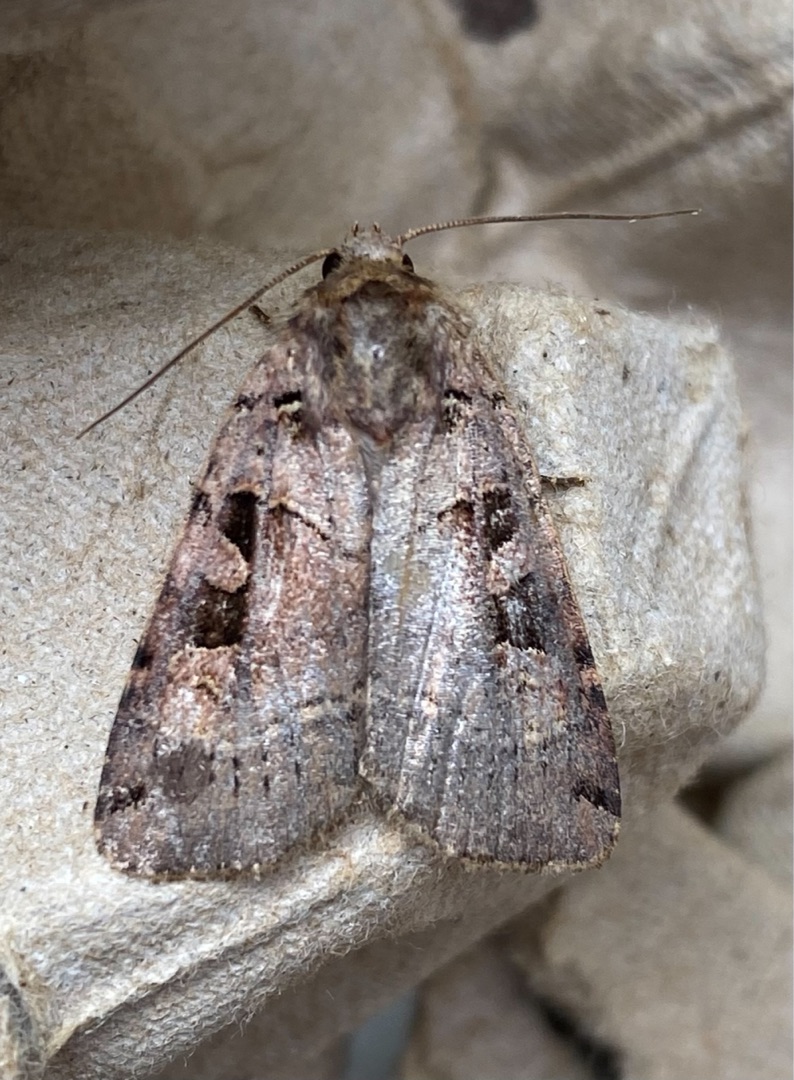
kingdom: Animalia
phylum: Arthropoda
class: Insecta
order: Lepidoptera
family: Noctuidae
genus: Xestia
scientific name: Xestia triangulum
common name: Sortplettet skovugle
